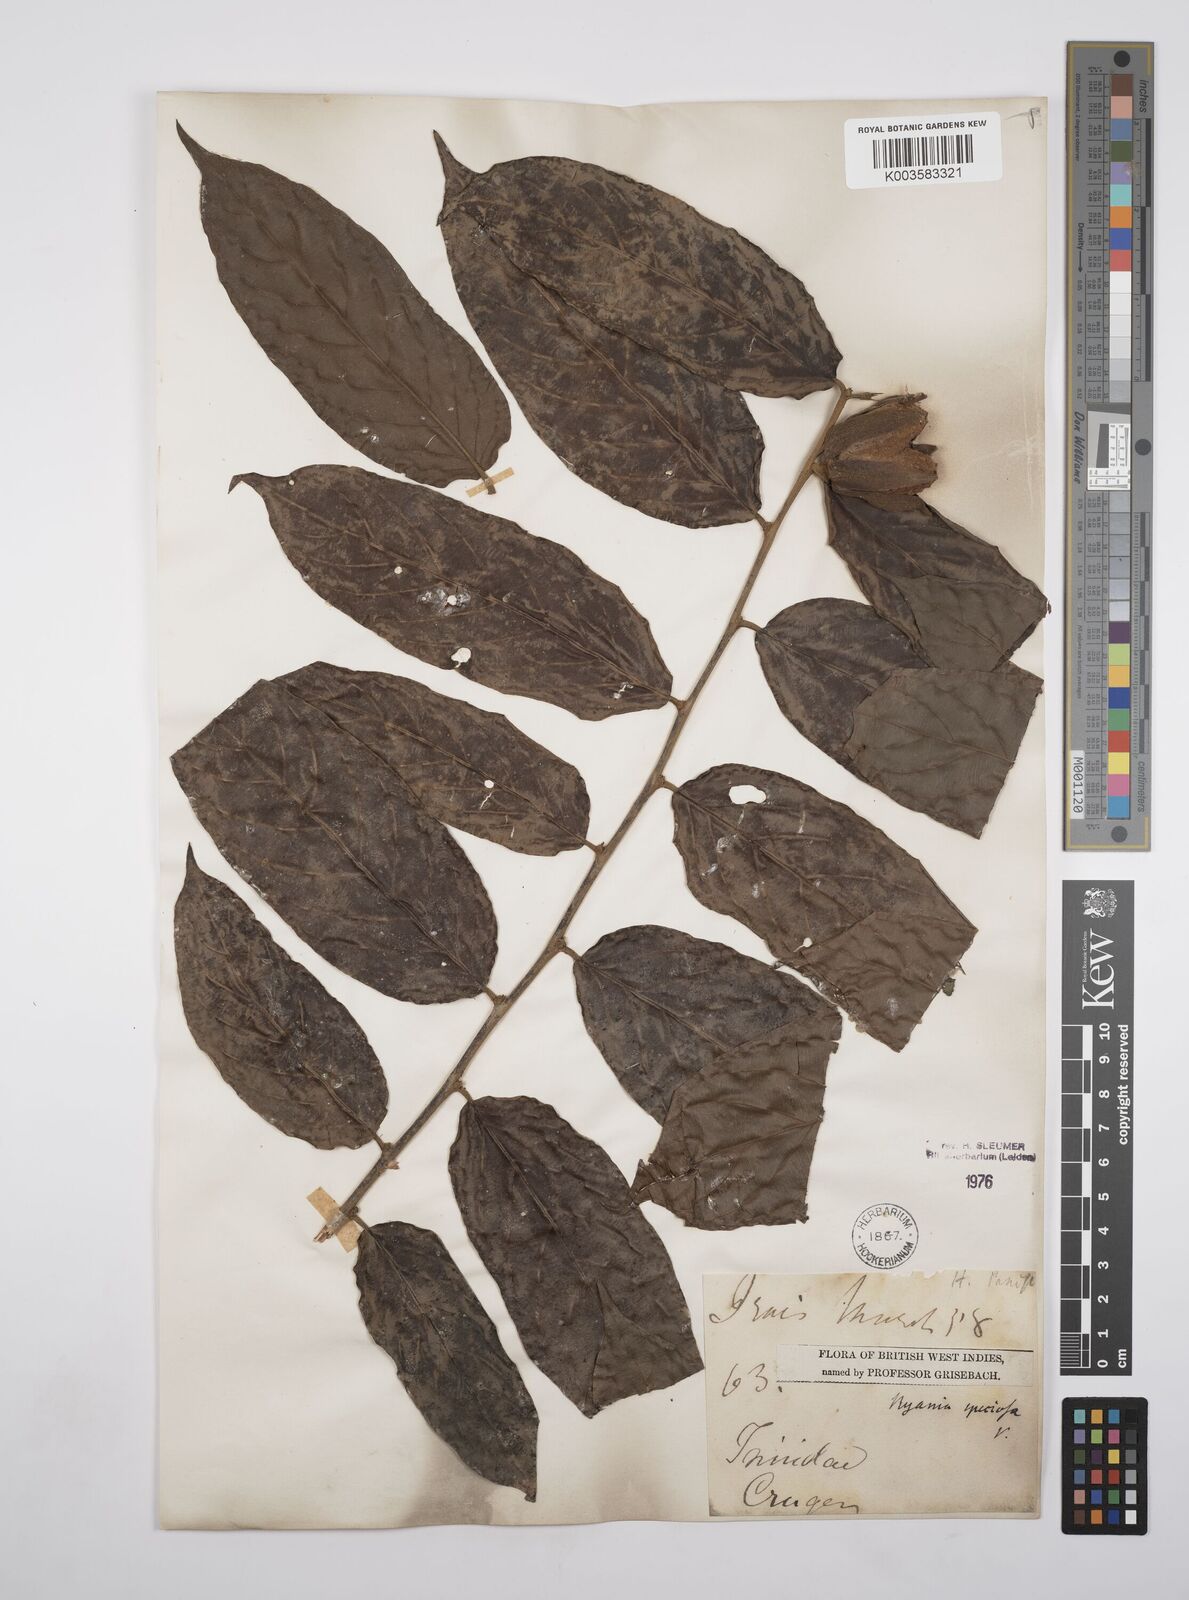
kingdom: Plantae
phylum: Tracheophyta
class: Magnoliopsida
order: Malpighiales
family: Salicaceae
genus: Ryania
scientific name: Ryania speciosa
